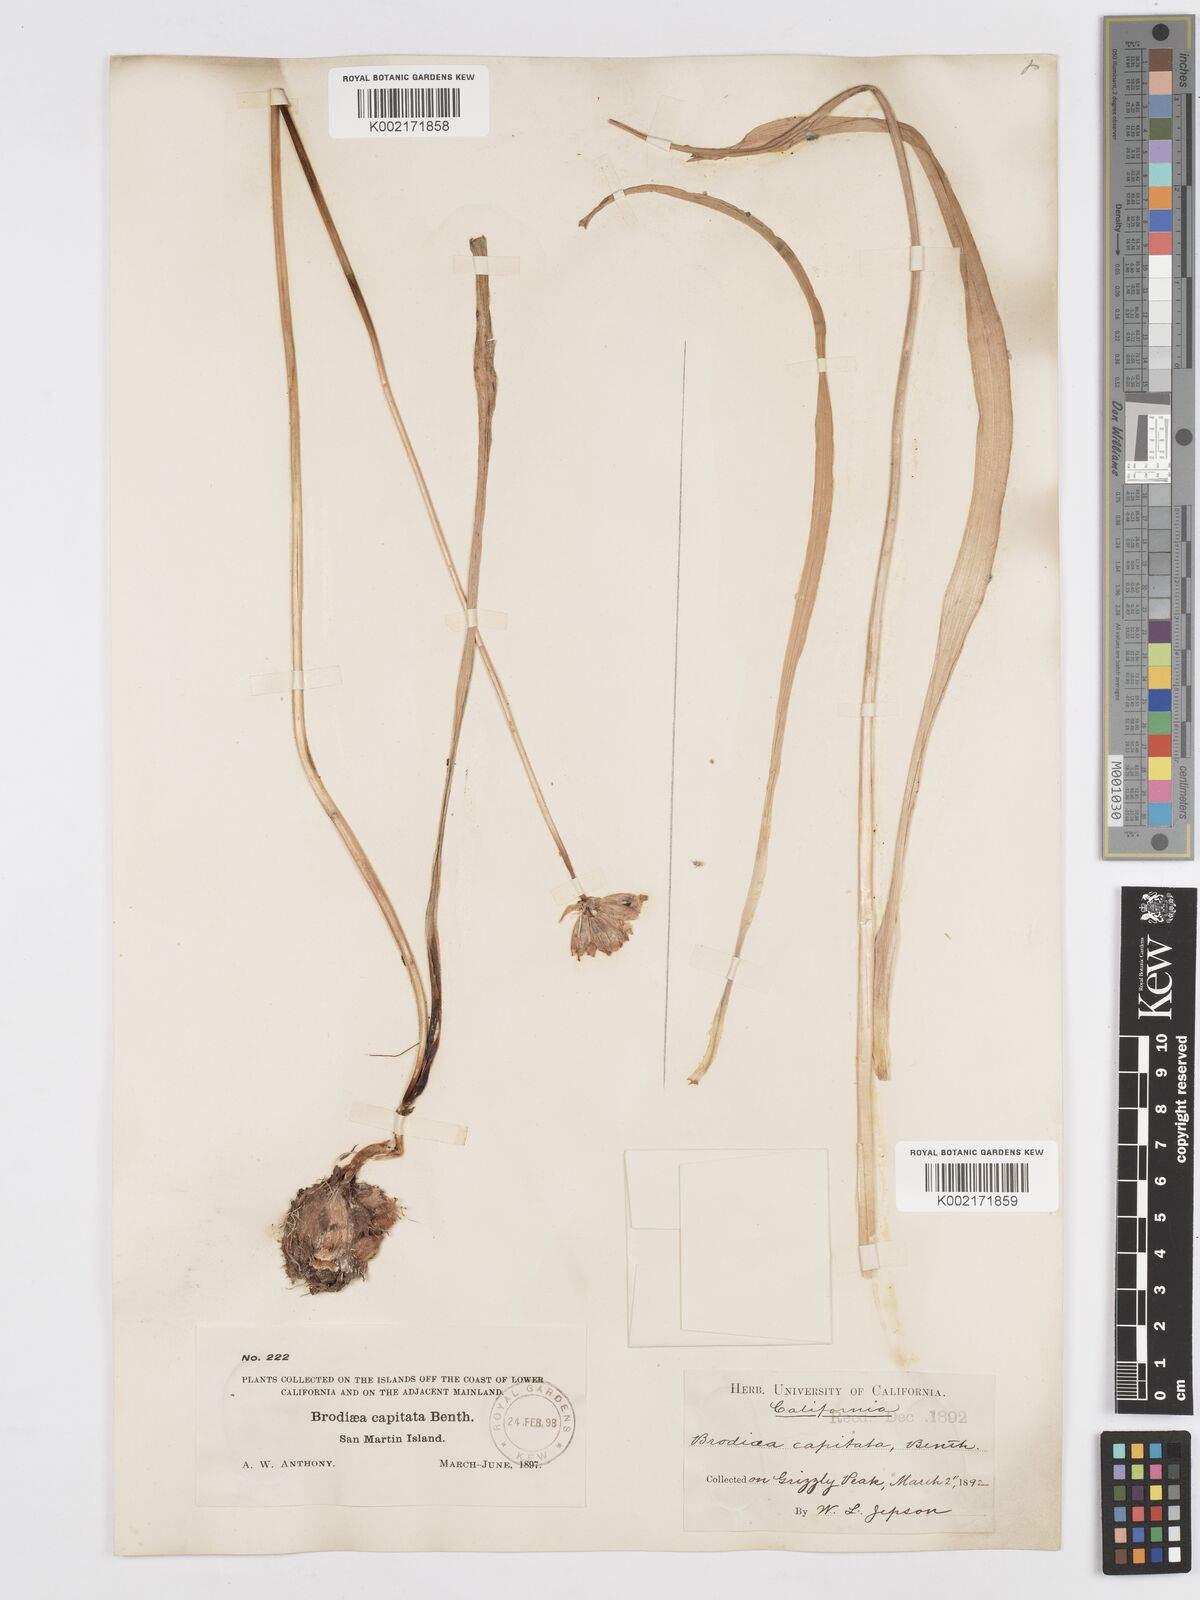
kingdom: Plantae
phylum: Tracheophyta
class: Liliopsida
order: Asparagales
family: Asparagaceae
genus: Dichelostemma
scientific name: Dichelostemma congestum
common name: Fork-tooth ookow
